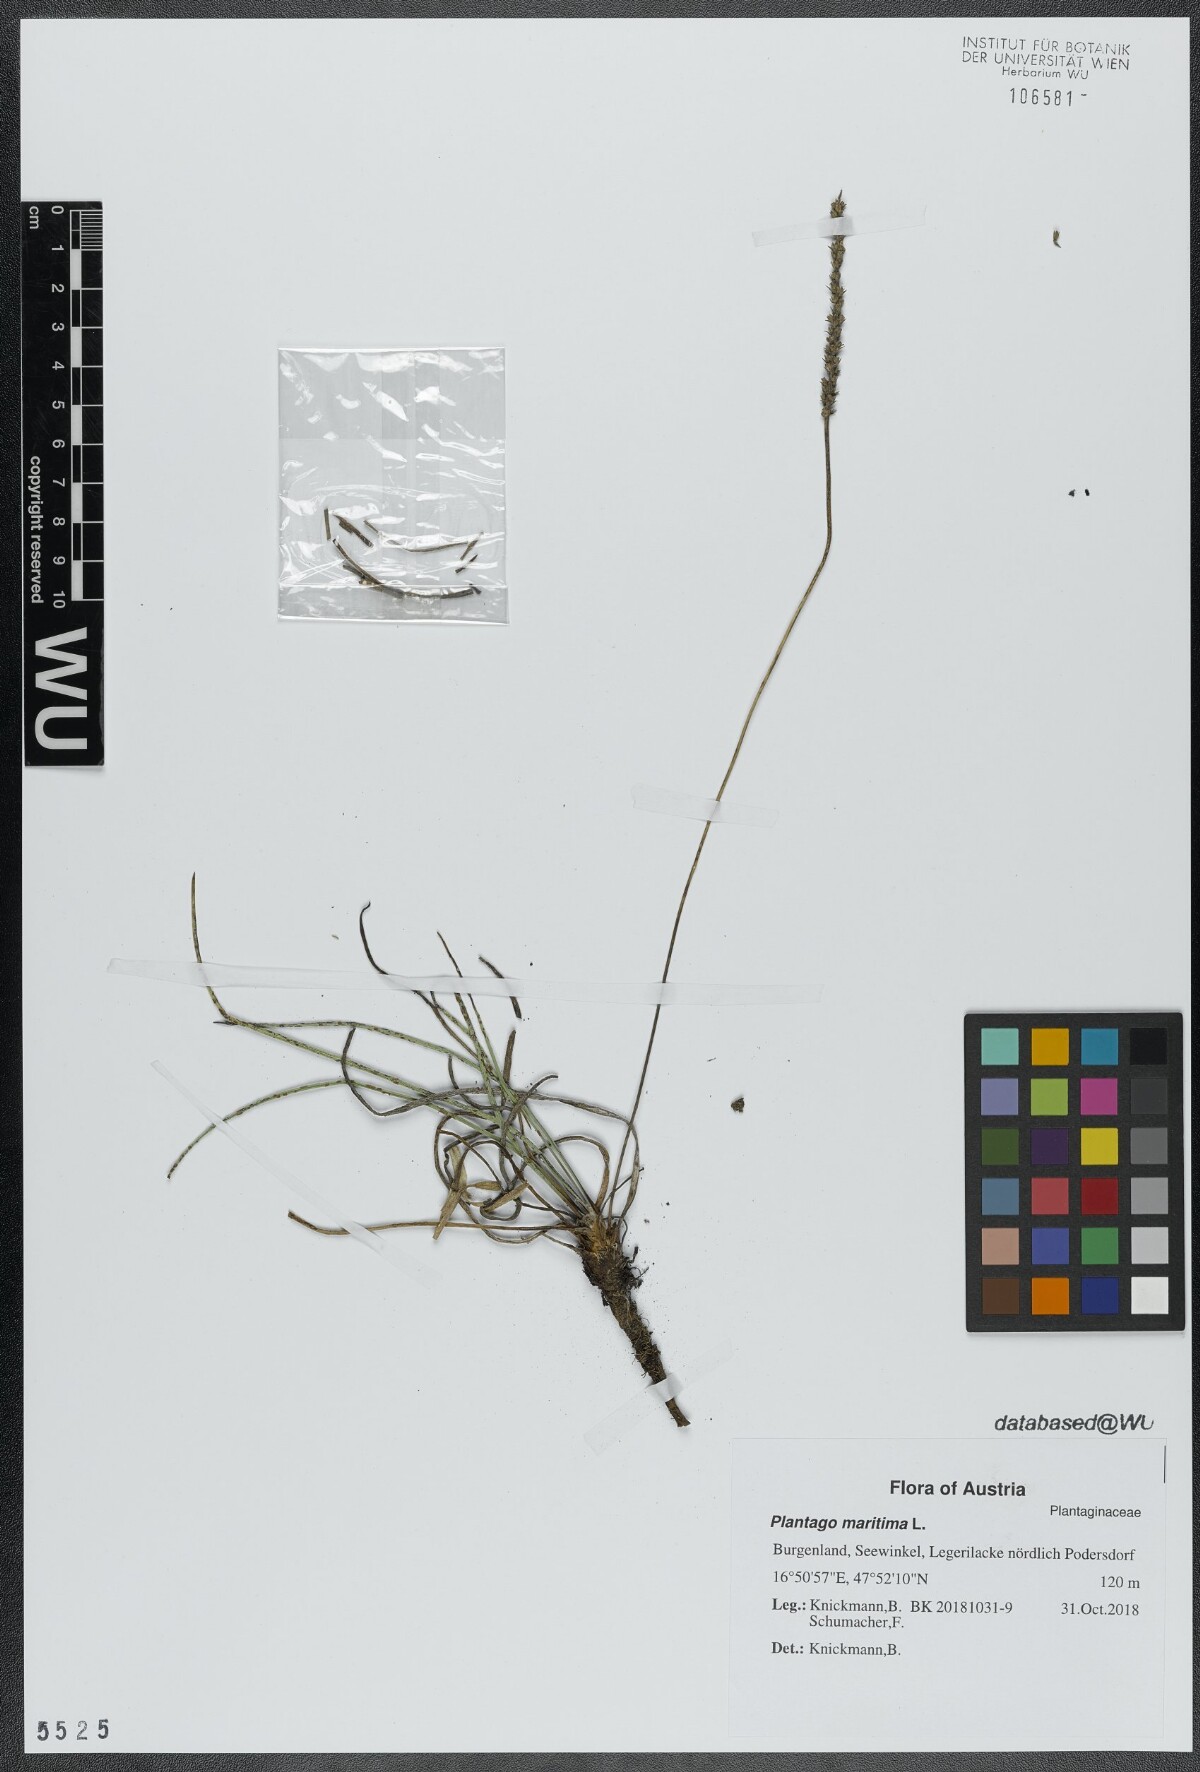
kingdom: Plantae
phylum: Tracheophyta
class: Magnoliopsida
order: Lamiales
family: Plantaginaceae
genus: Plantago
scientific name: Plantago maritima
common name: Sea plantain
